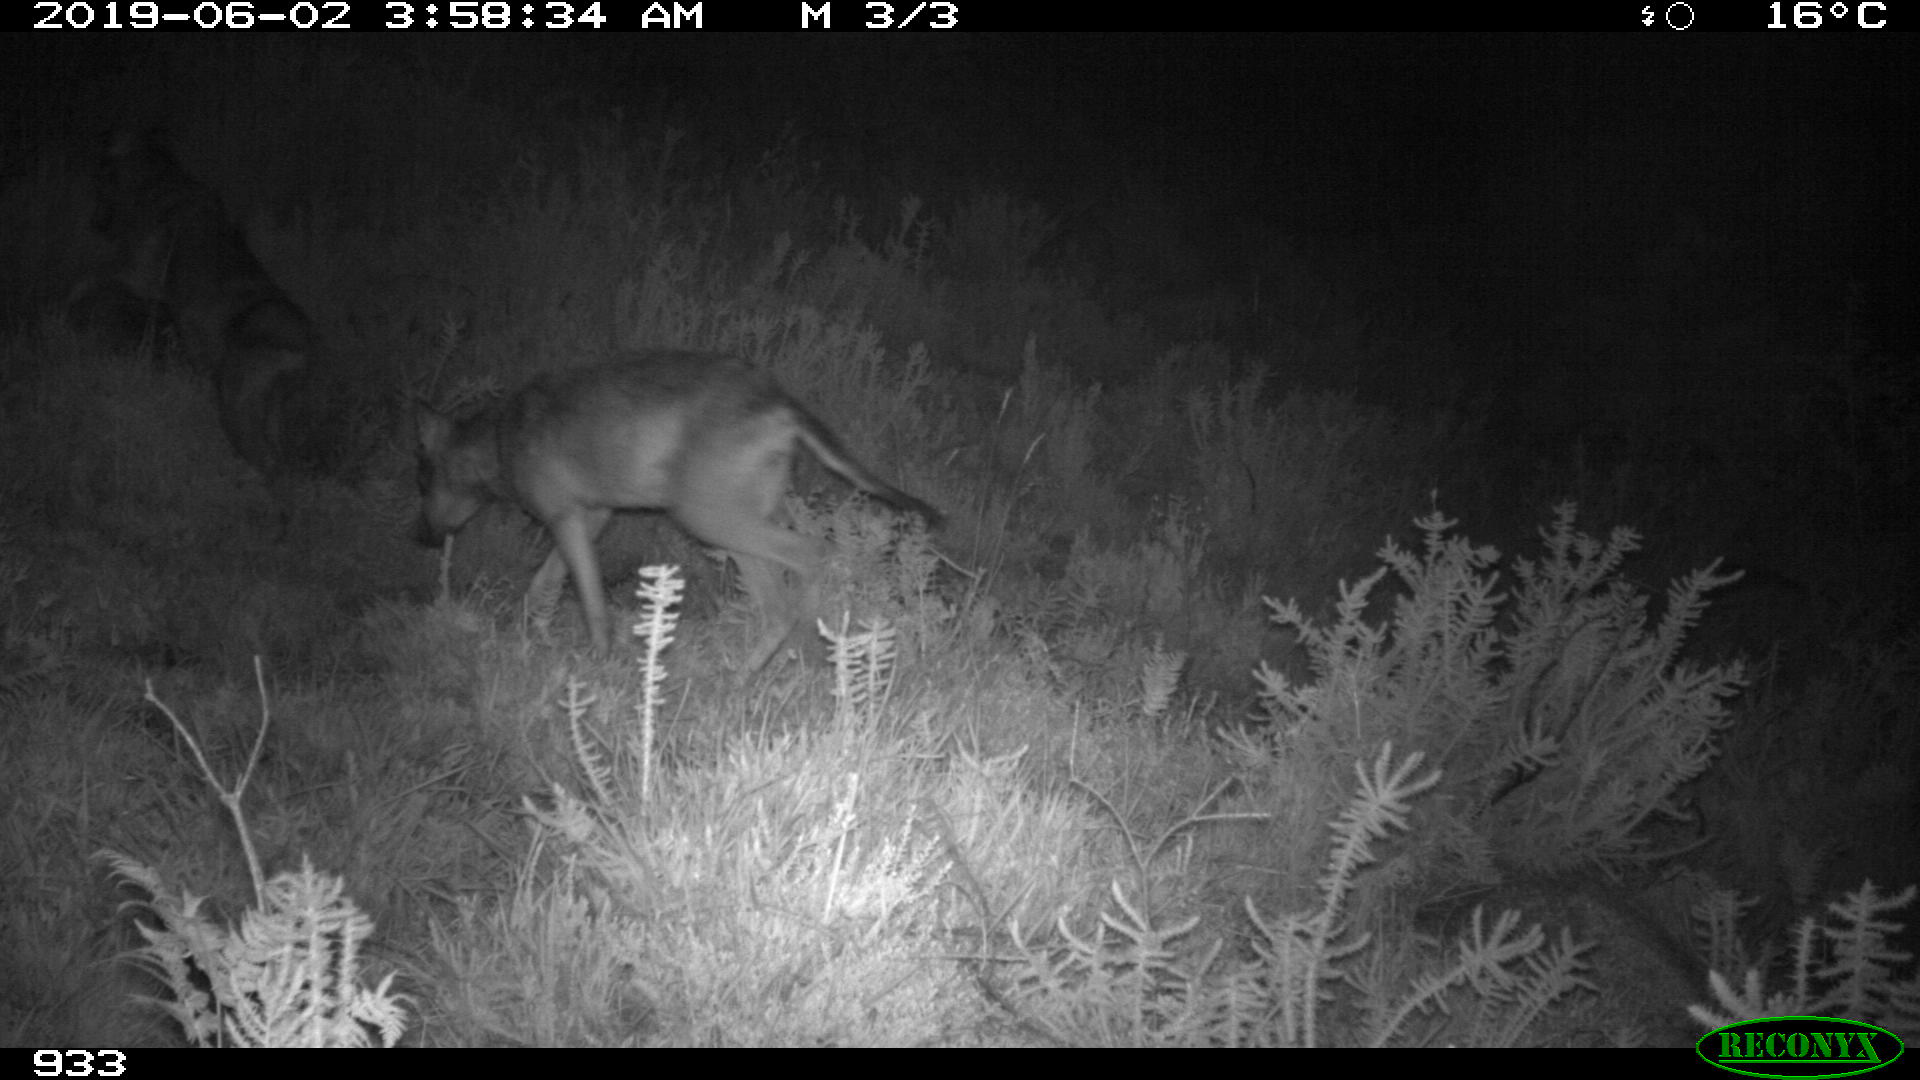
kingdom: Animalia
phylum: Chordata
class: Mammalia
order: Carnivora
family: Canidae
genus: Canis
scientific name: Canis lupus
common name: Gray wolf
